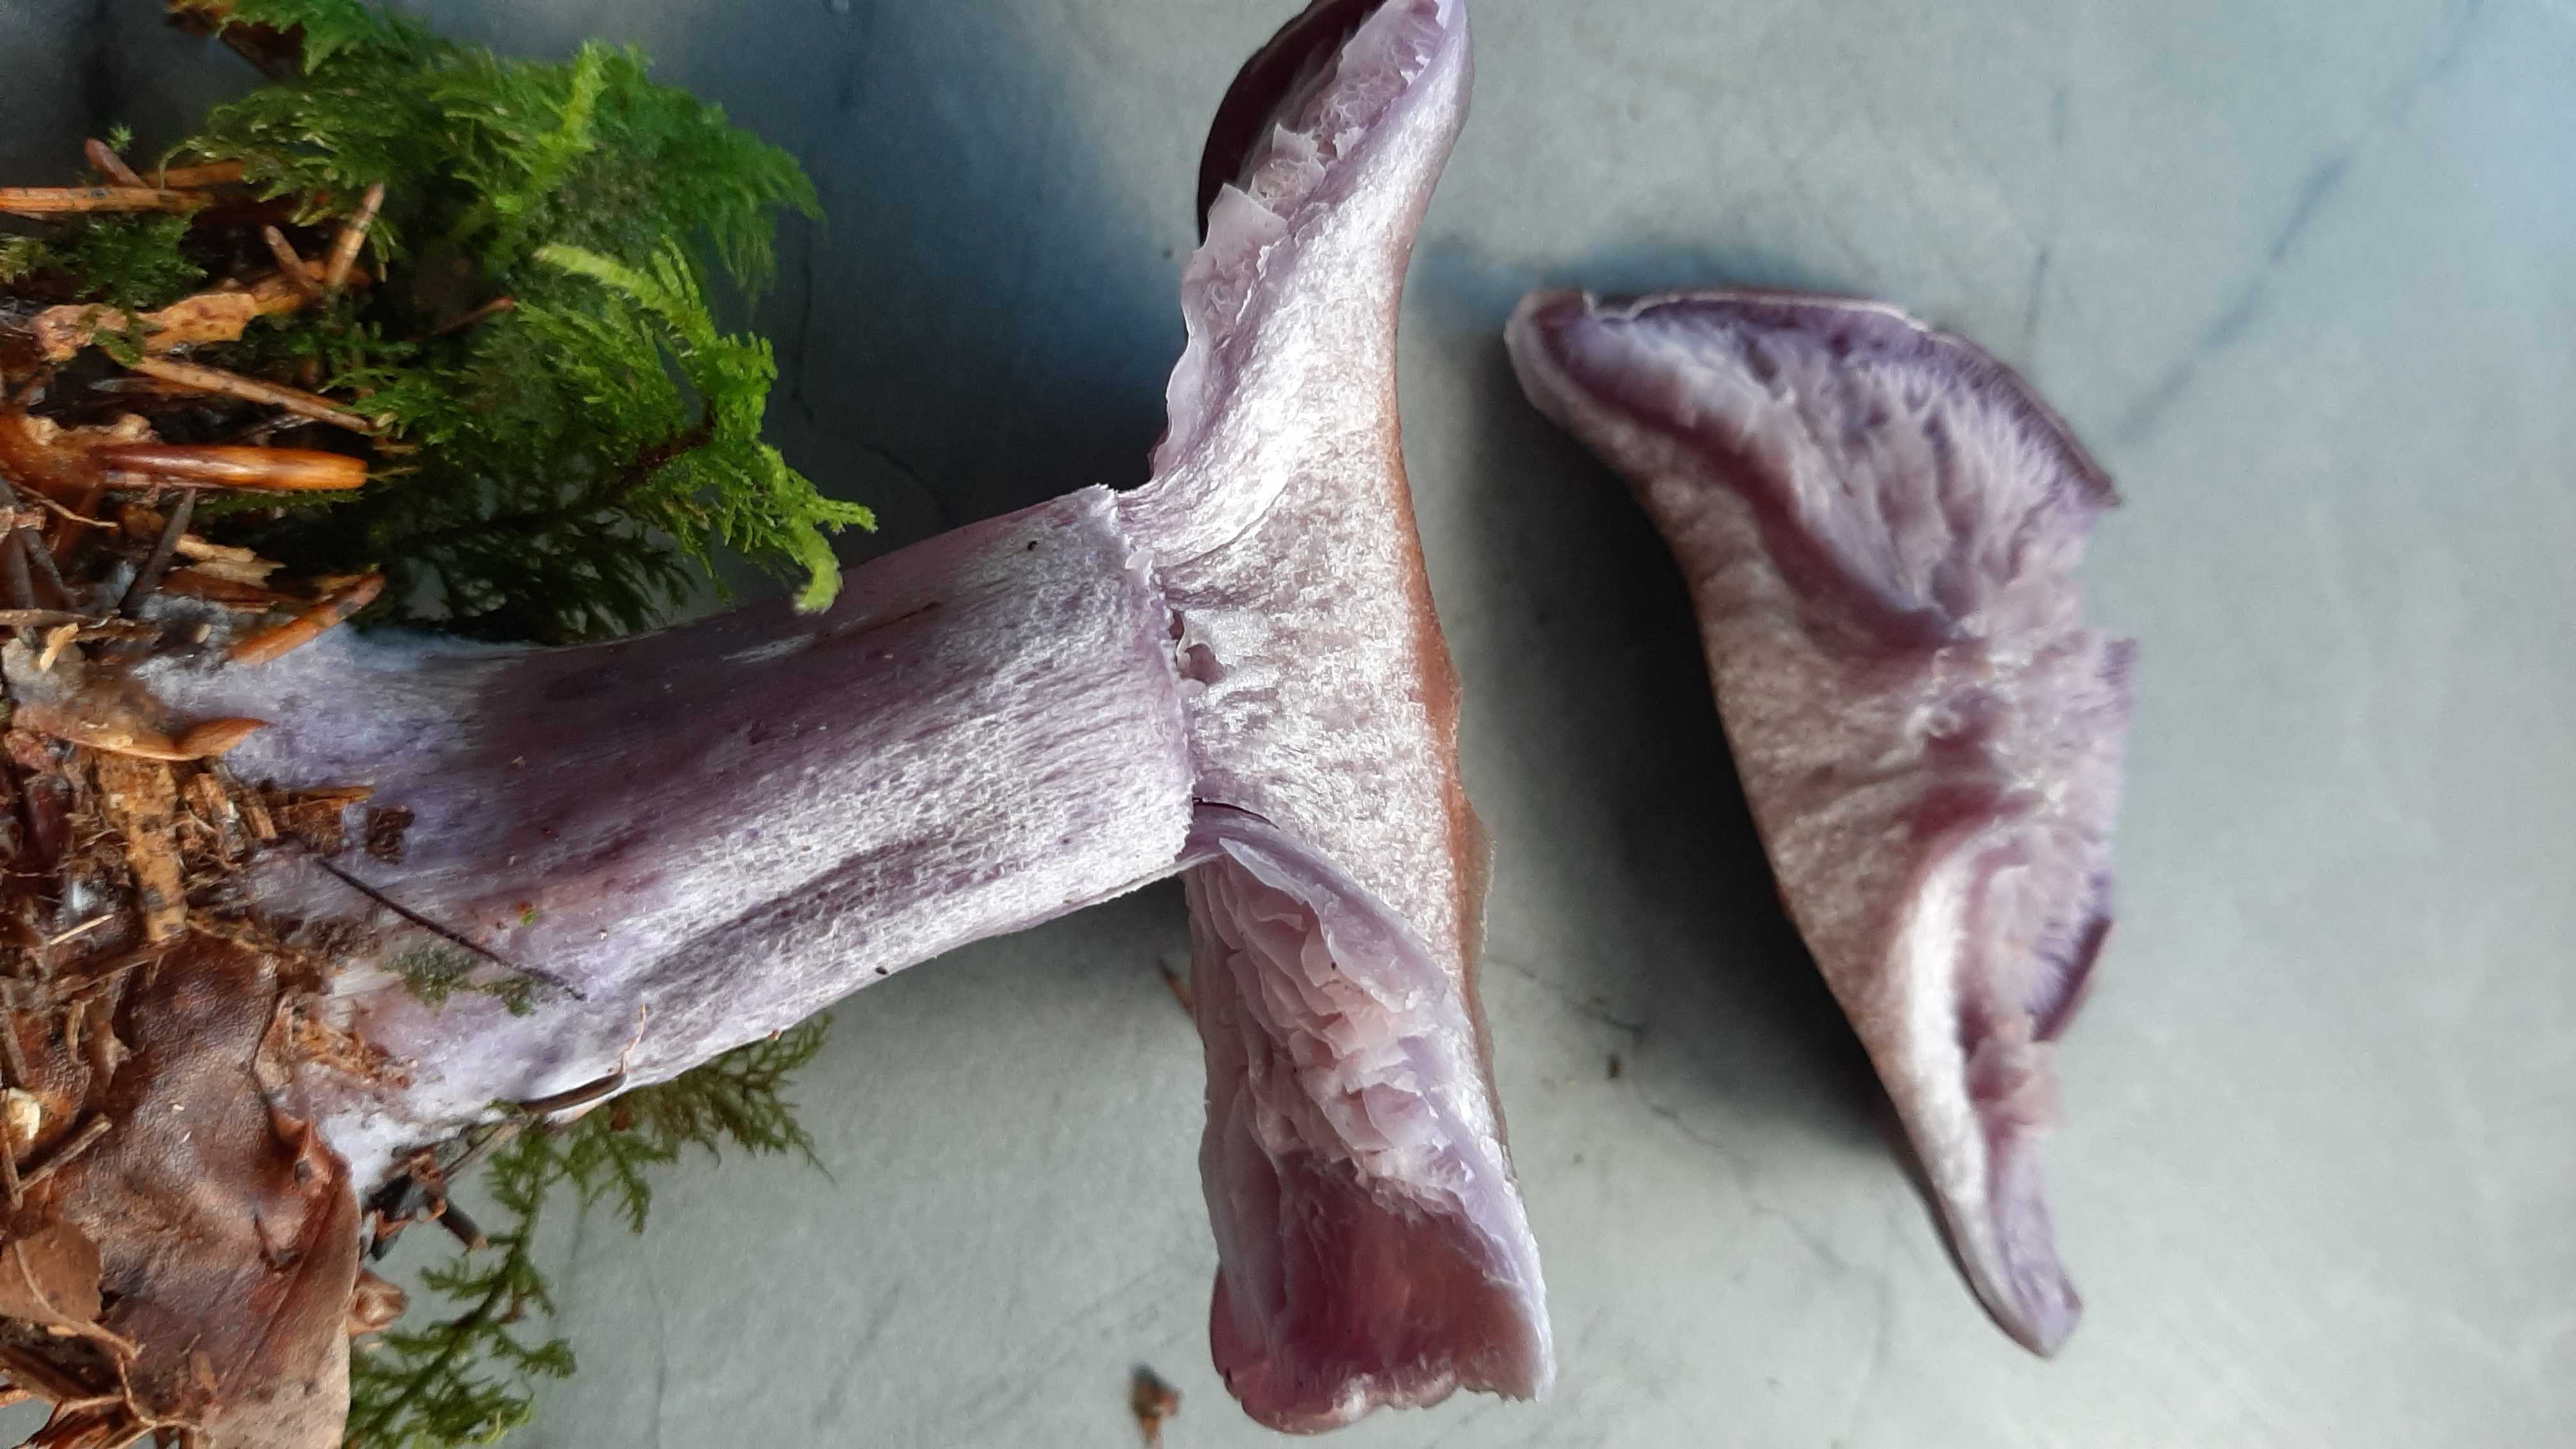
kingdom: Fungi
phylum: Basidiomycota
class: Agaricomycetes
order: Agaricales
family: Tricholomataceae
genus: Lepista
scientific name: Lepista nuda
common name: violet hekseringshat
